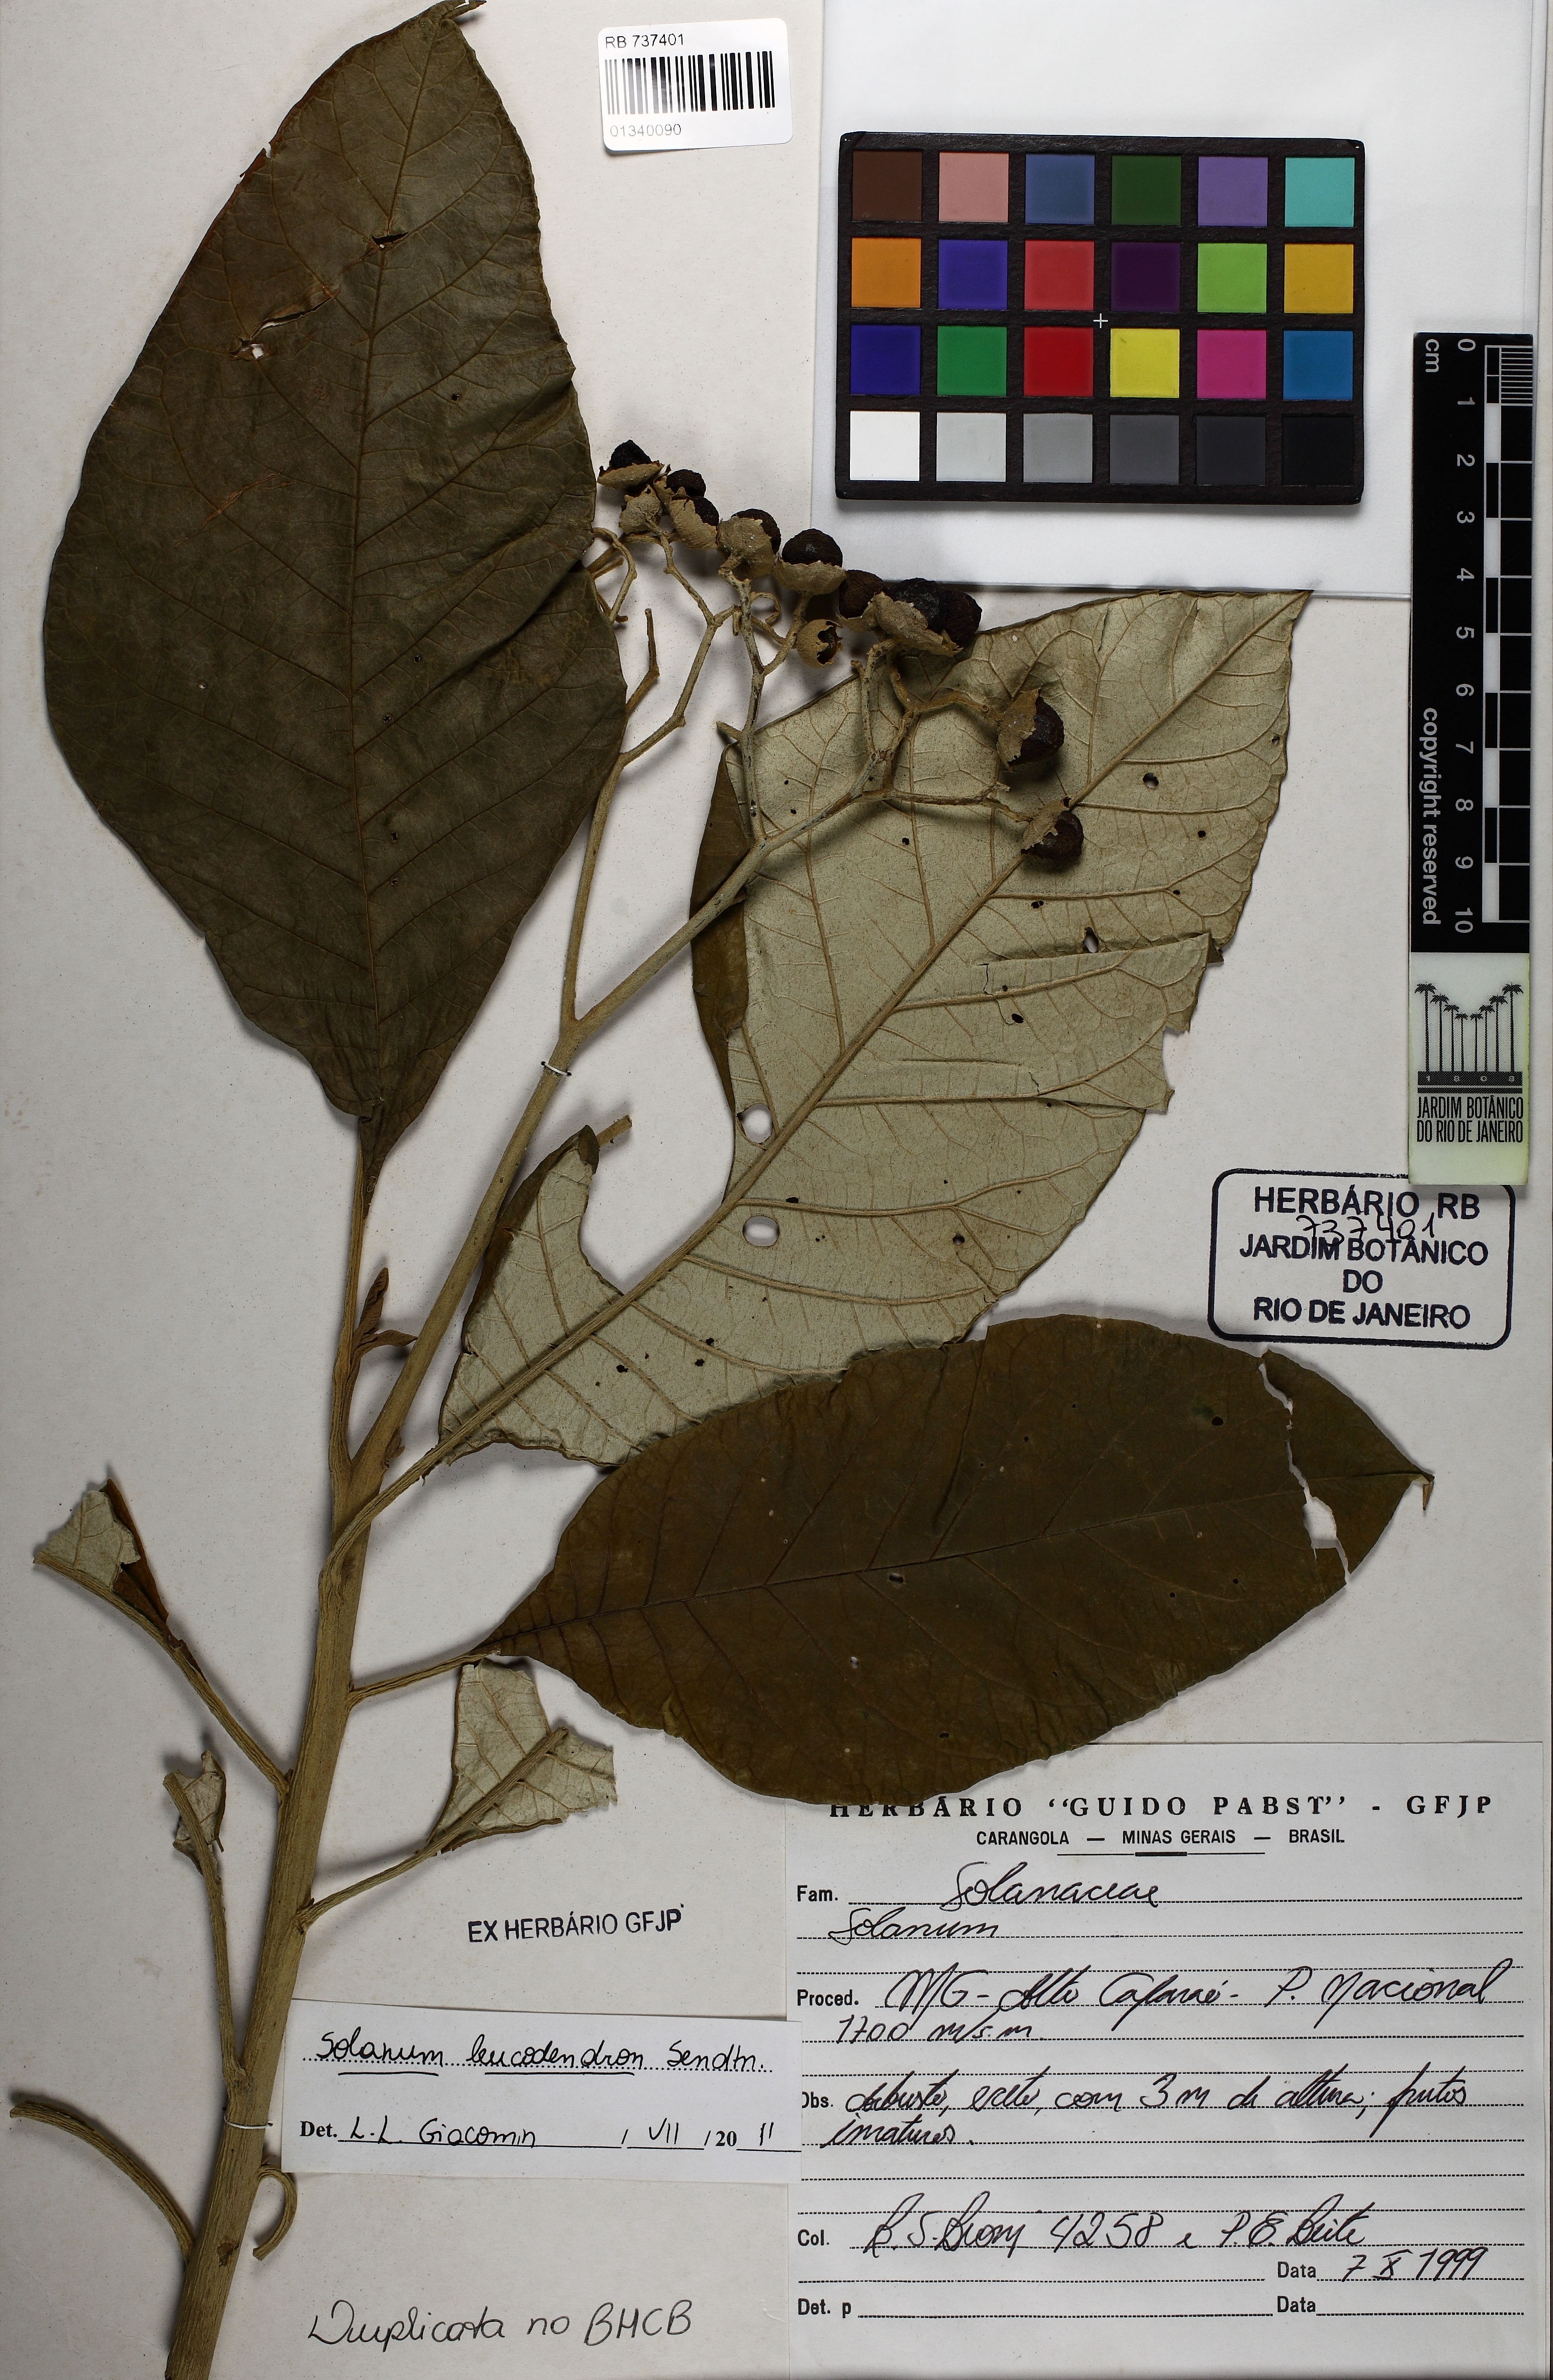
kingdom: Plantae
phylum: Tracheophyta
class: Magnoliopsida
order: Solanales
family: Solanaceae
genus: Solanum
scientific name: Solanum leucodendron
